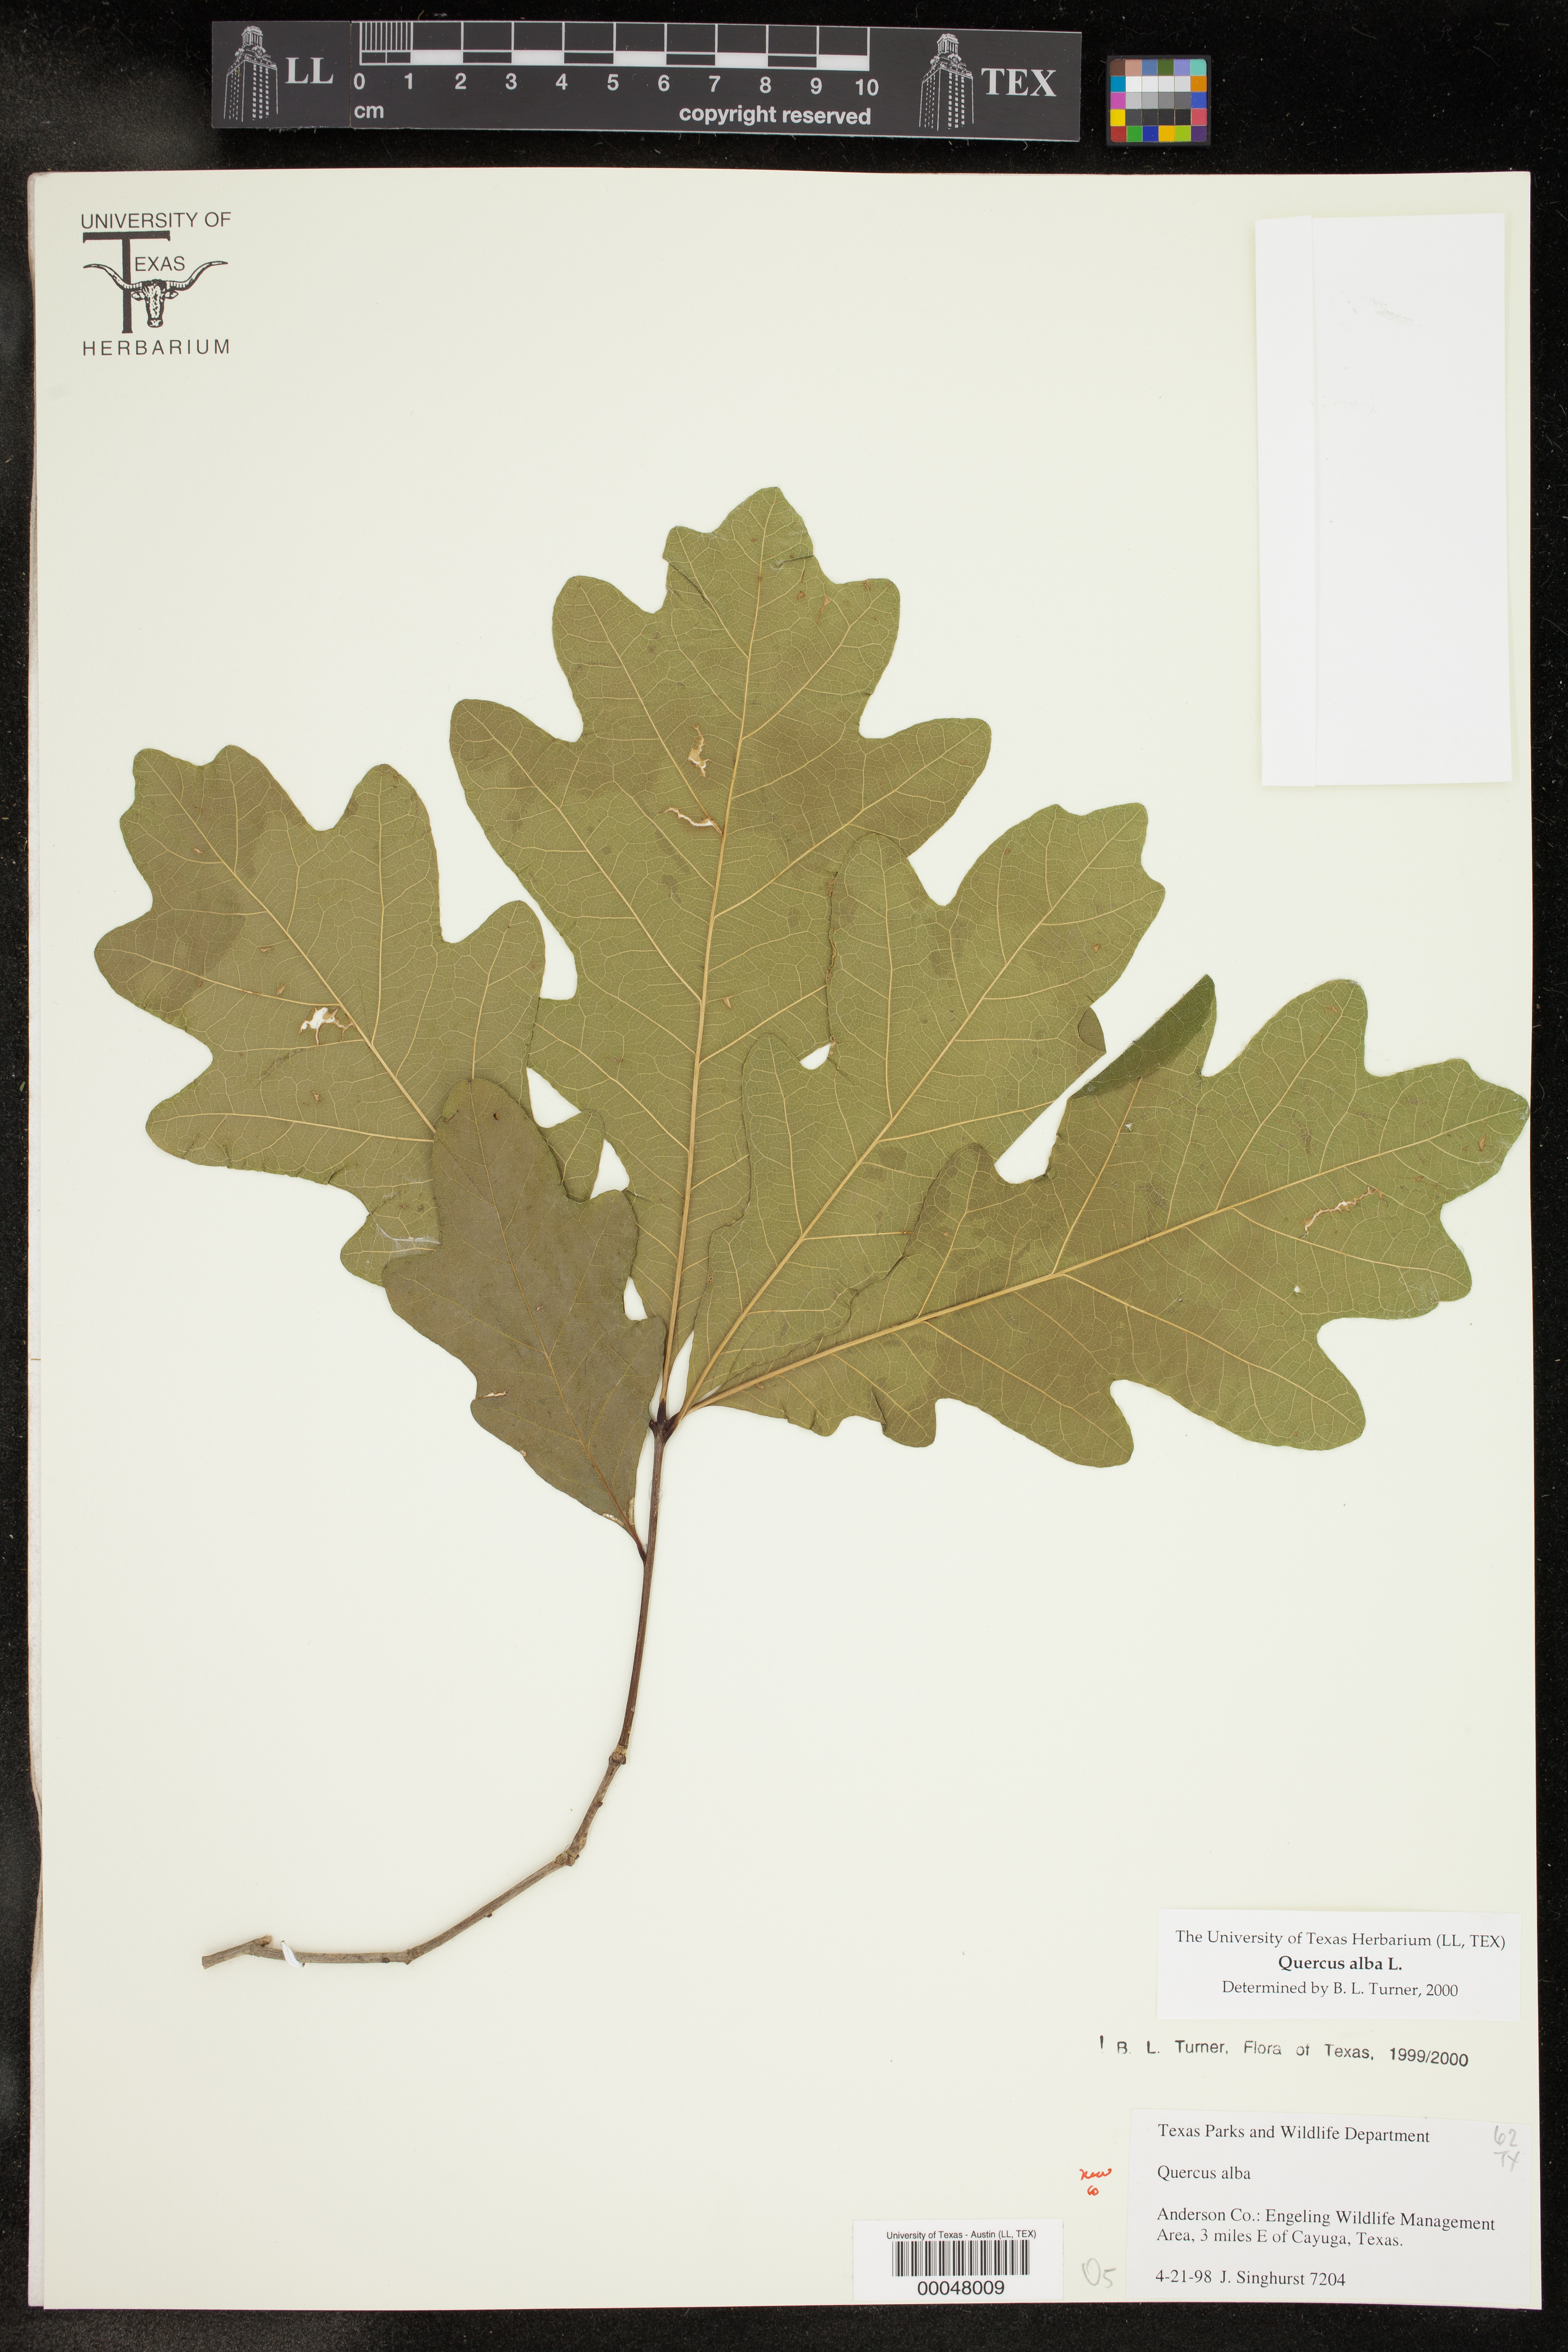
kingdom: Plantae
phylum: Tracheophyta
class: Magnoliopsida
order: Fagales
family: Fagaceae
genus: Quercus
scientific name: Quercus alba
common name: White oak
